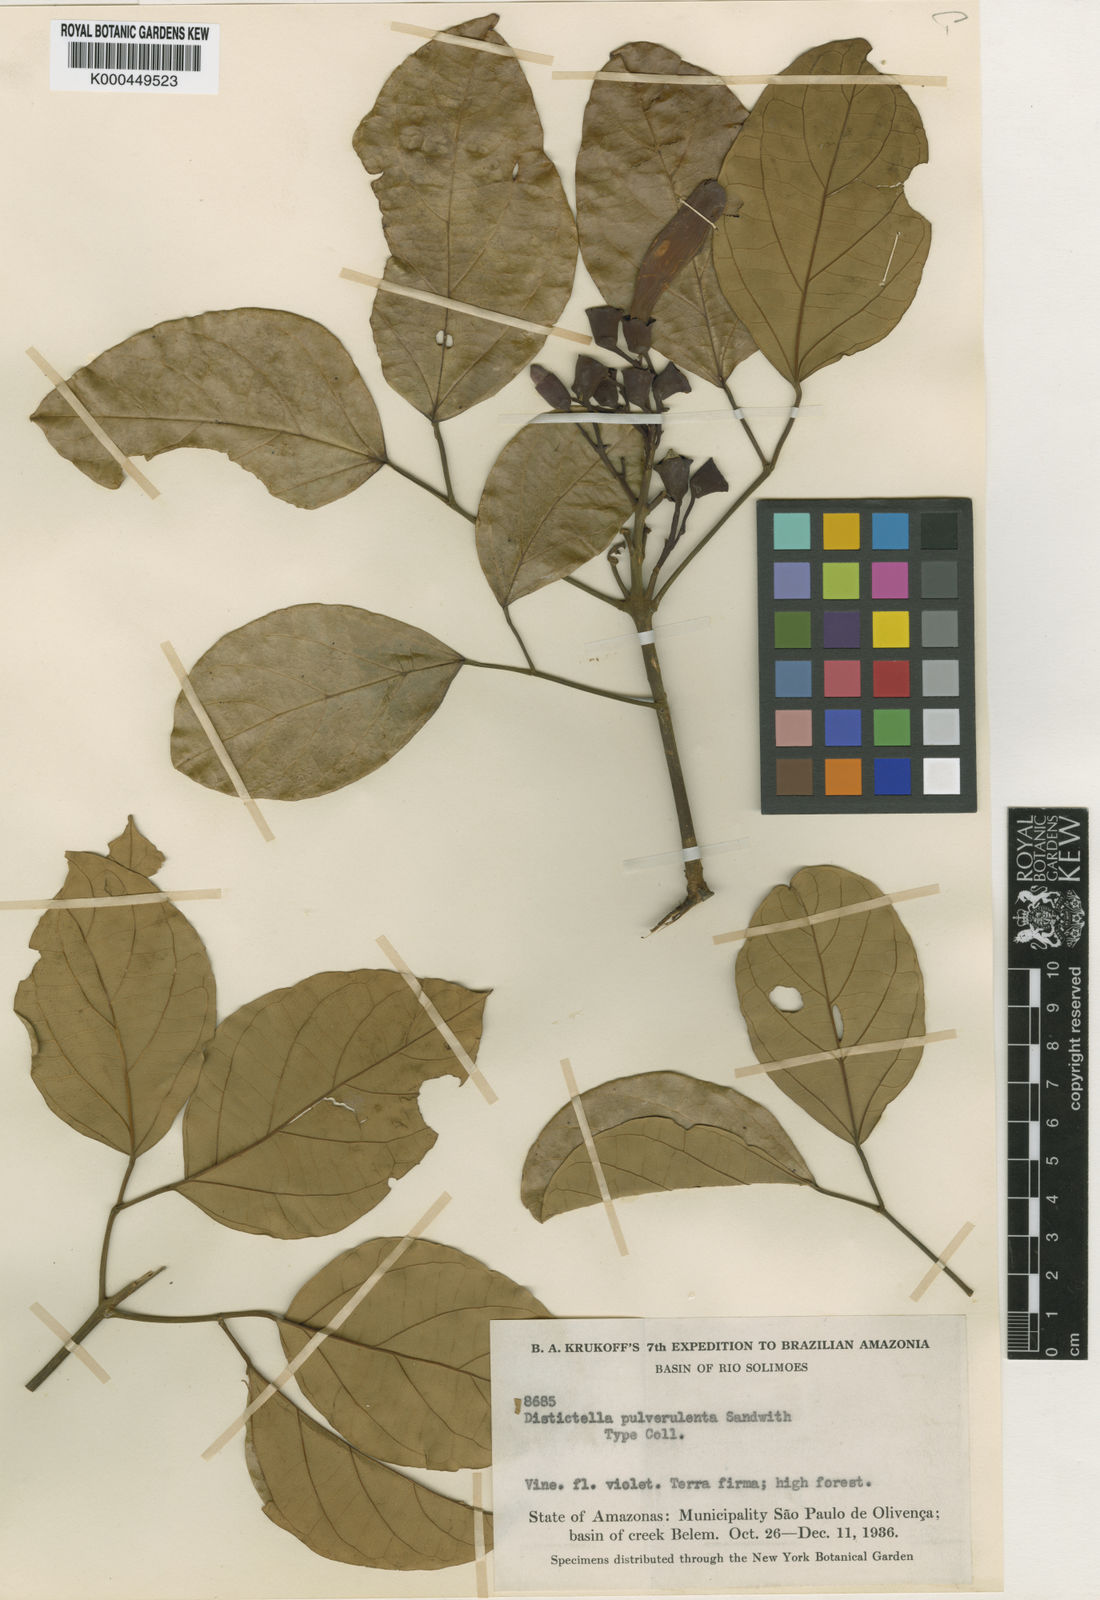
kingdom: Plantae
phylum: Tracheophyta
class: Magnoliopsida
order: Lamiales
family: Bignoniaceae
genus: Amphilophium
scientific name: Amphilophium pulverulentum
